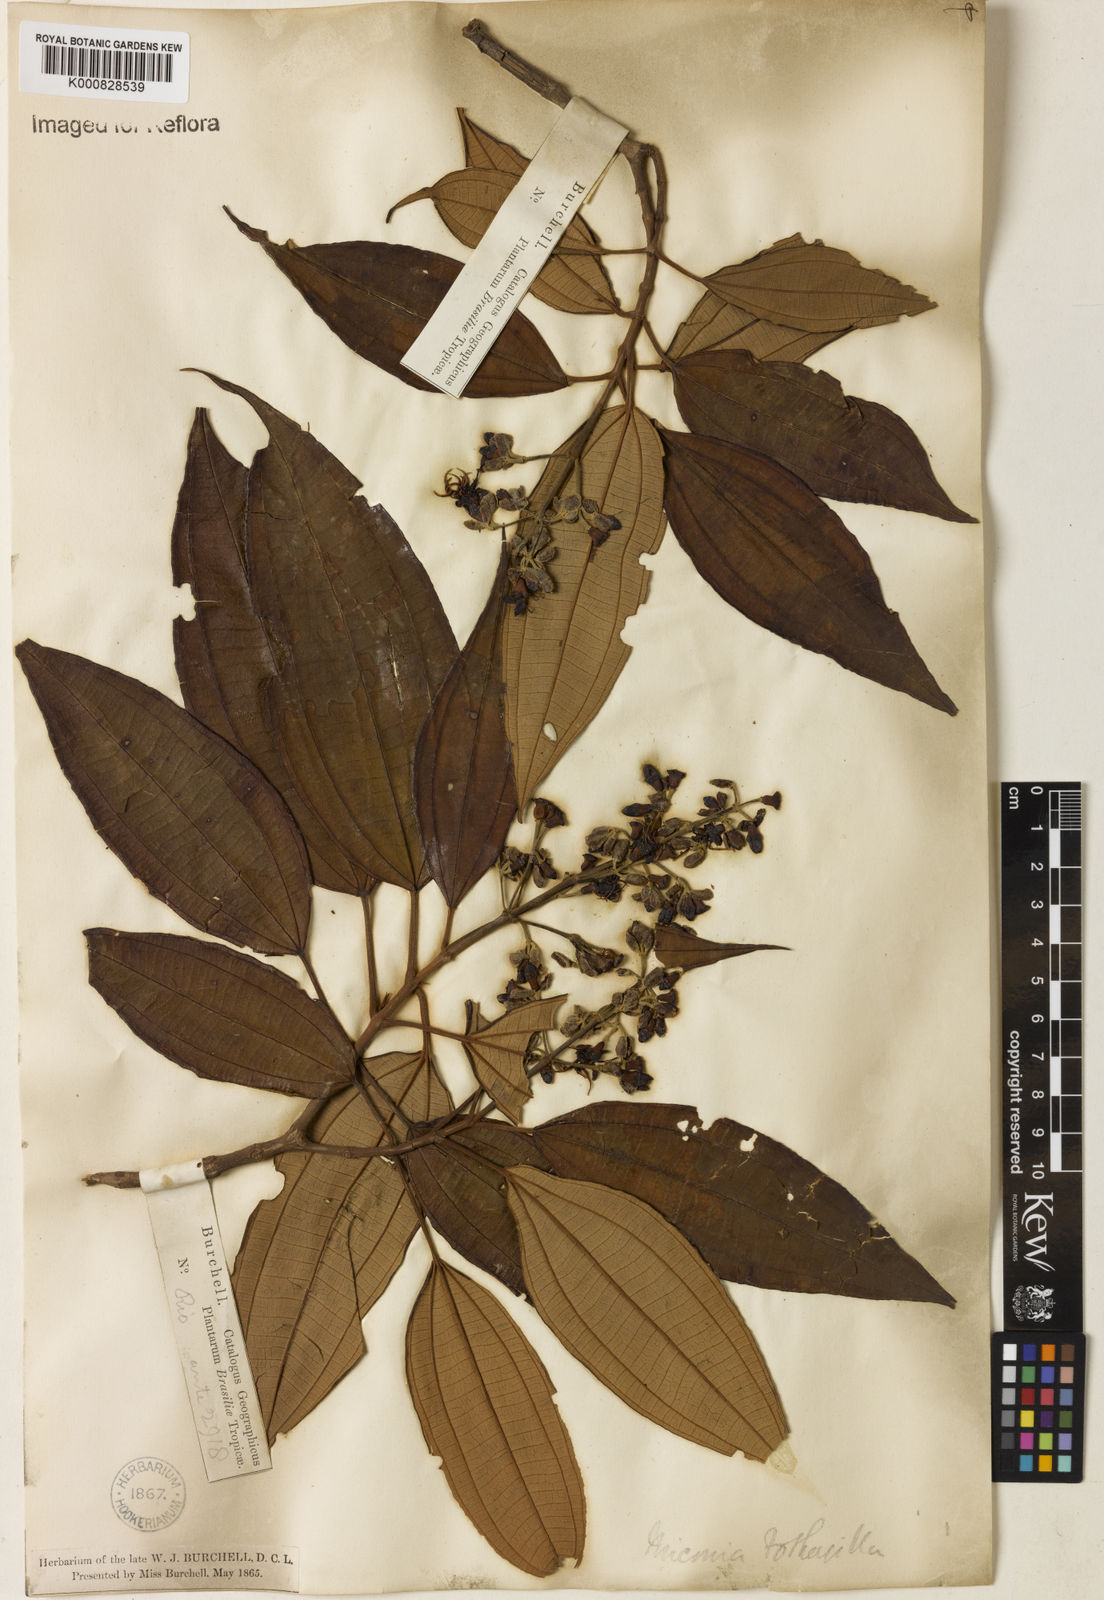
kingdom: Plantae
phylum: Tracheophyta
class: Magnoliopsida
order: Myrtales
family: Melastomataceae
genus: Miconia
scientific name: Miconia mirabilis
